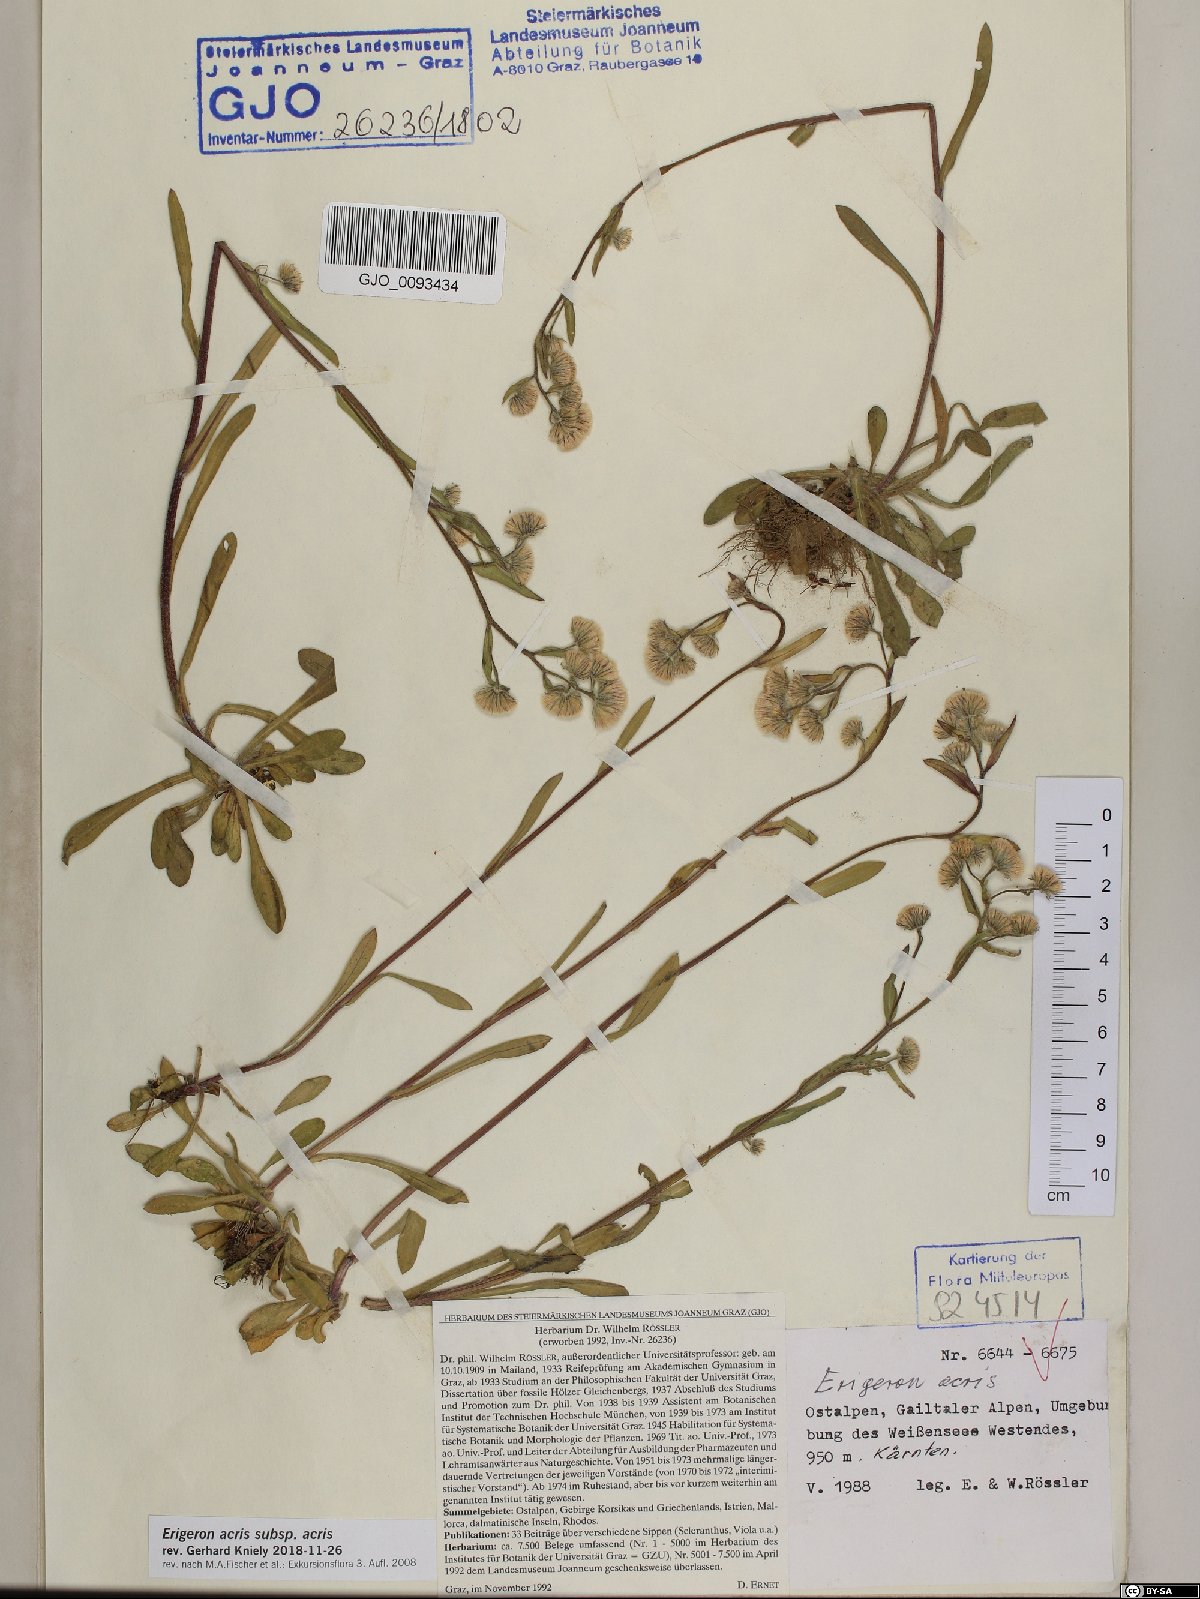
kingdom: Plantae
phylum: Tracheophyta
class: Magnoliopsida
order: Asterales
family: Asteraceae
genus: Erigeron
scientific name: Erigeron acris
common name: Blue fleabane
